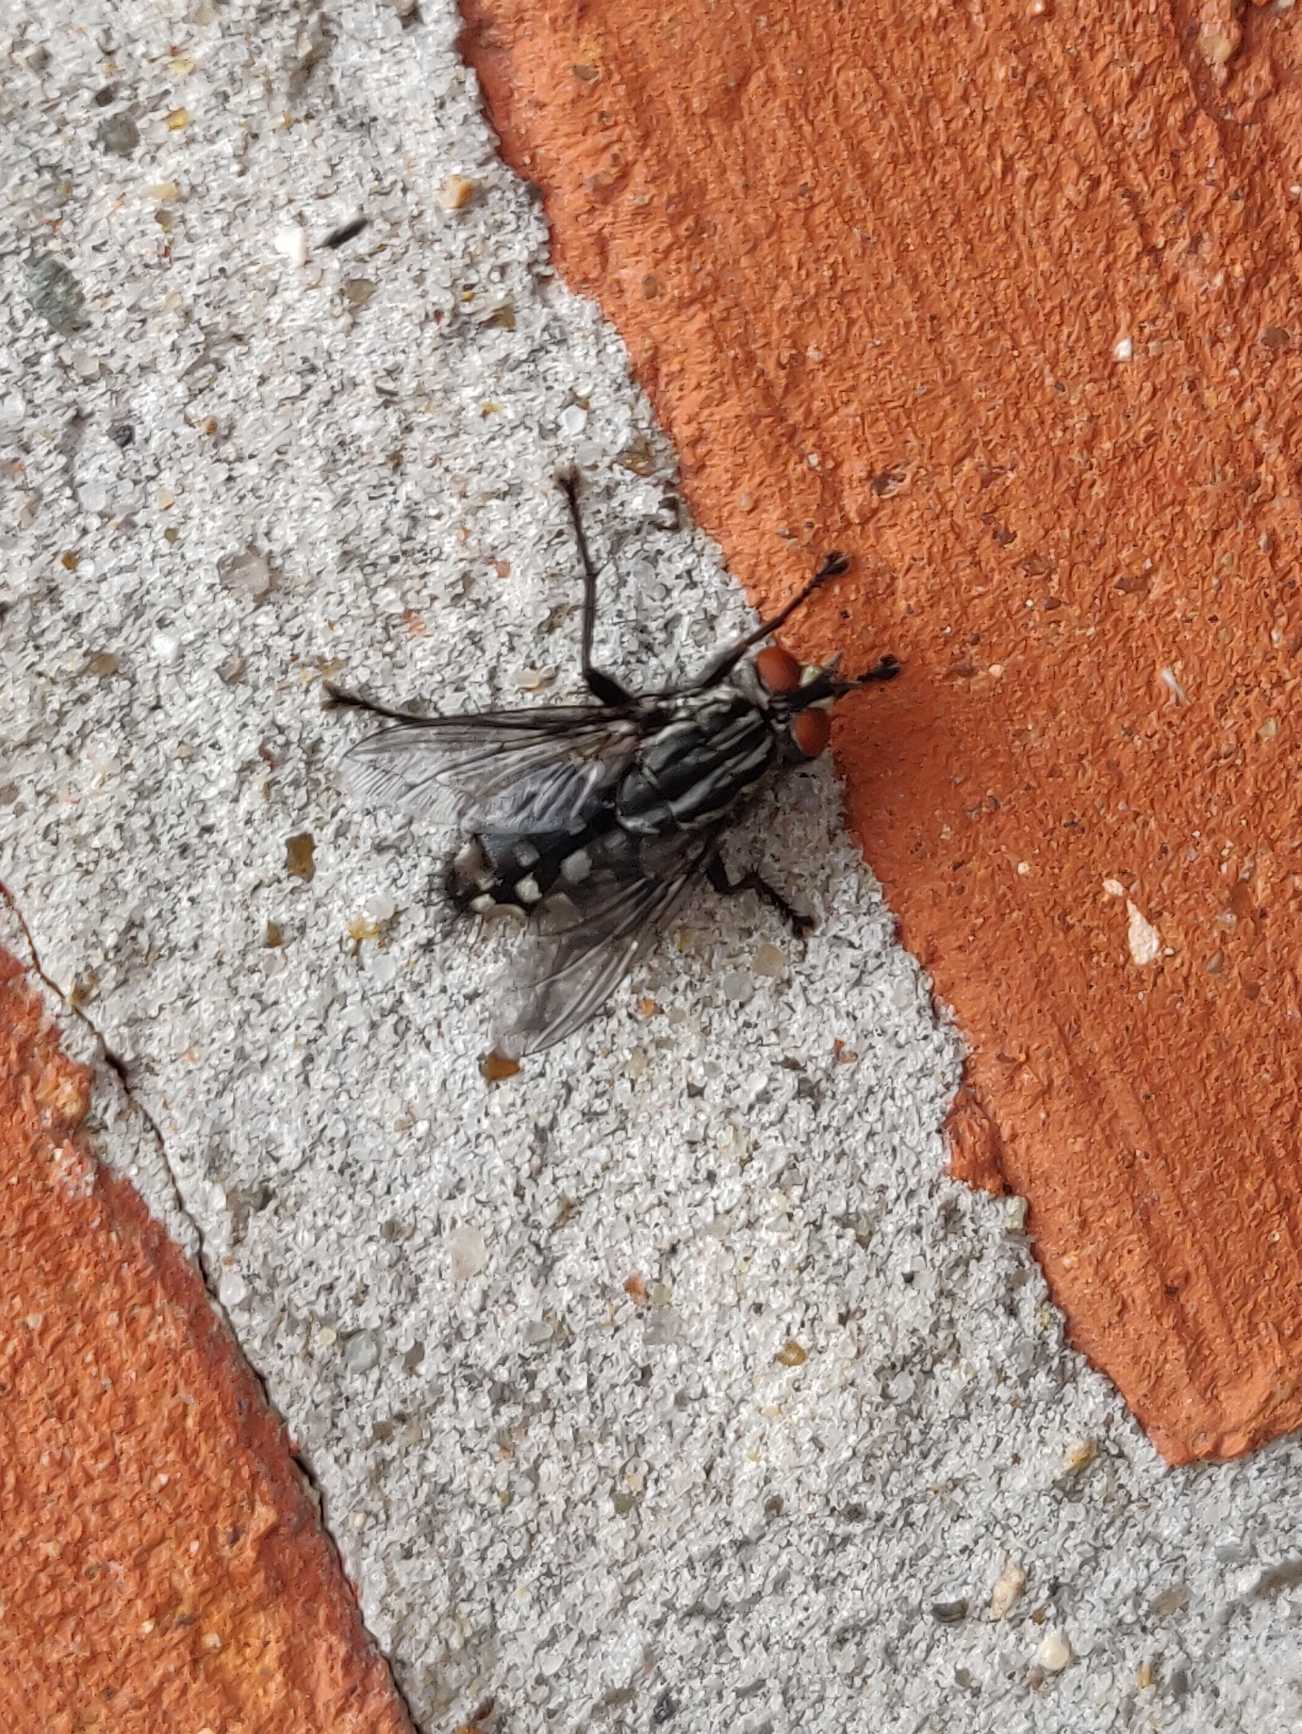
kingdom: Animalia
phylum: Arthropoda
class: Insecta
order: Diptera
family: Sarcophagidae
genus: Sarcophaga
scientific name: Sarcophaga
